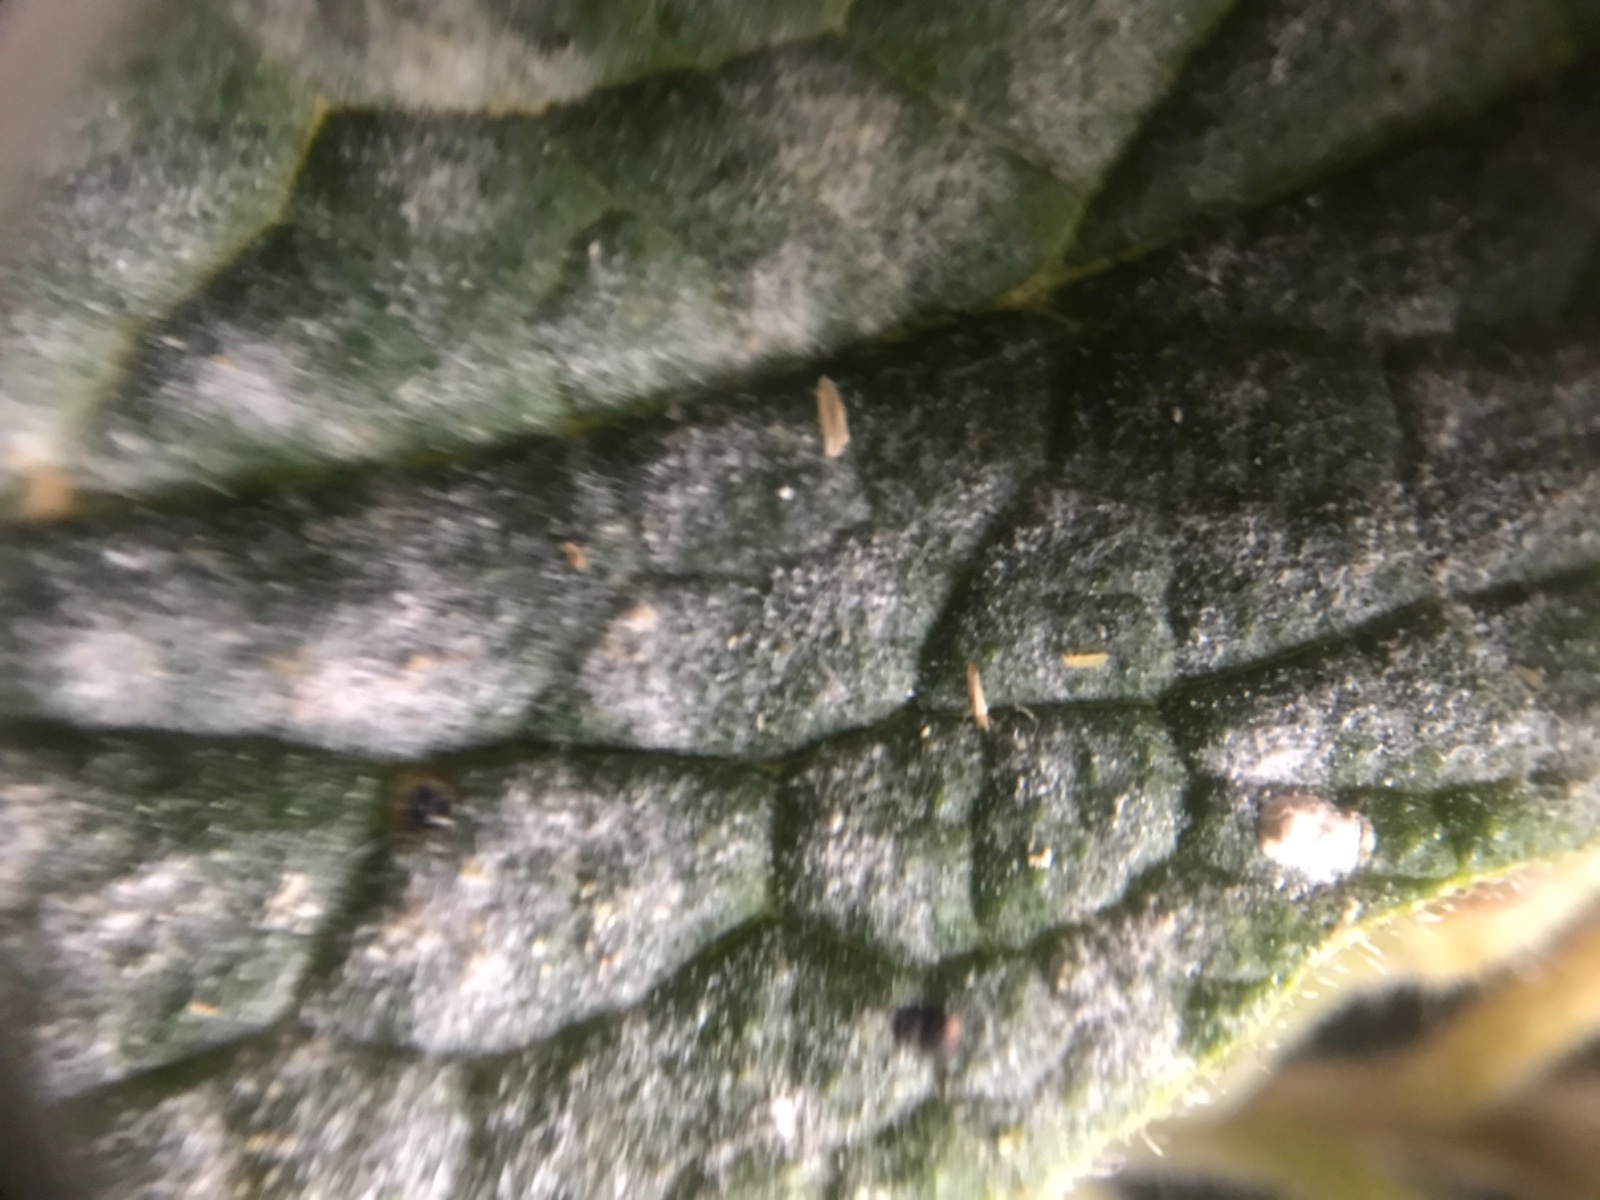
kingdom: Fungi
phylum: Ascomycota
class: Leotiomycetes
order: Helotiales
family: Erysiphaceae
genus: Golovinomyces
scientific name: Golovinomyces asperifoliorum
